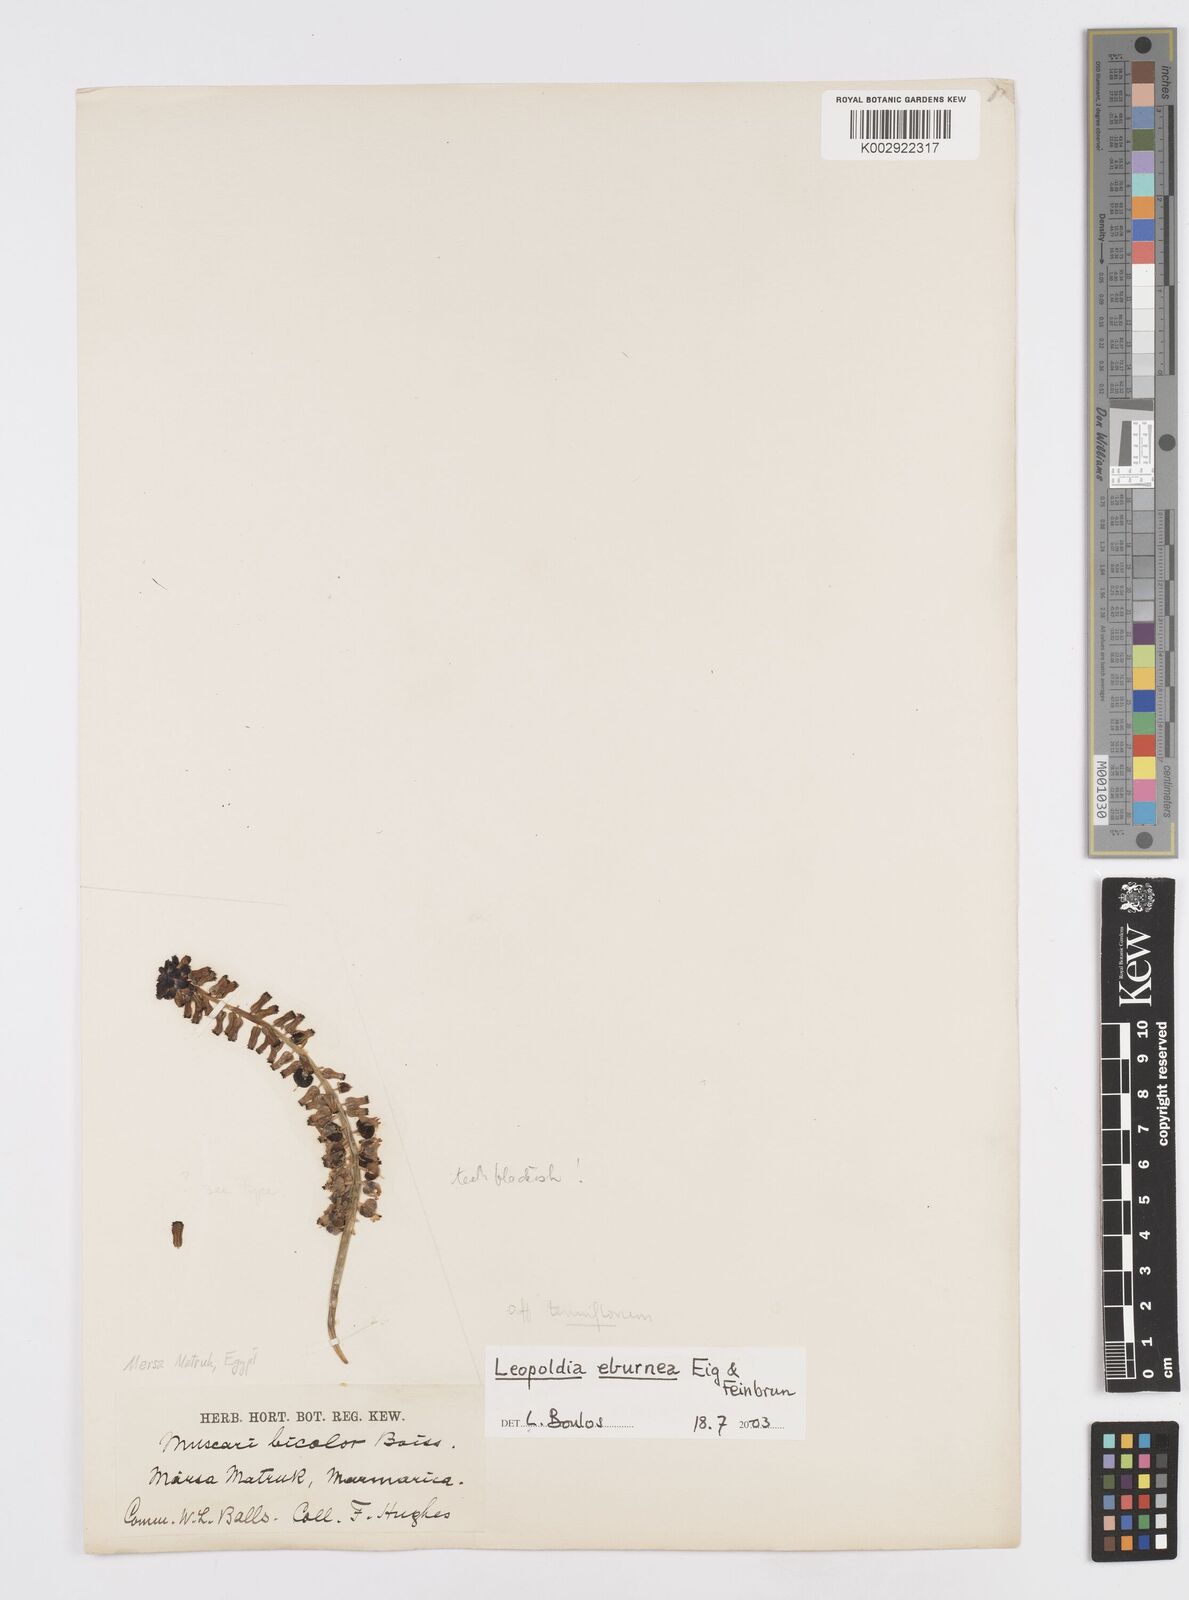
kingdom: Plantae
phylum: Tracheophyta
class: Liliopsida
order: Asparagales
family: Asparagaceae
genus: Muscari
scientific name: Muscari eburneum
